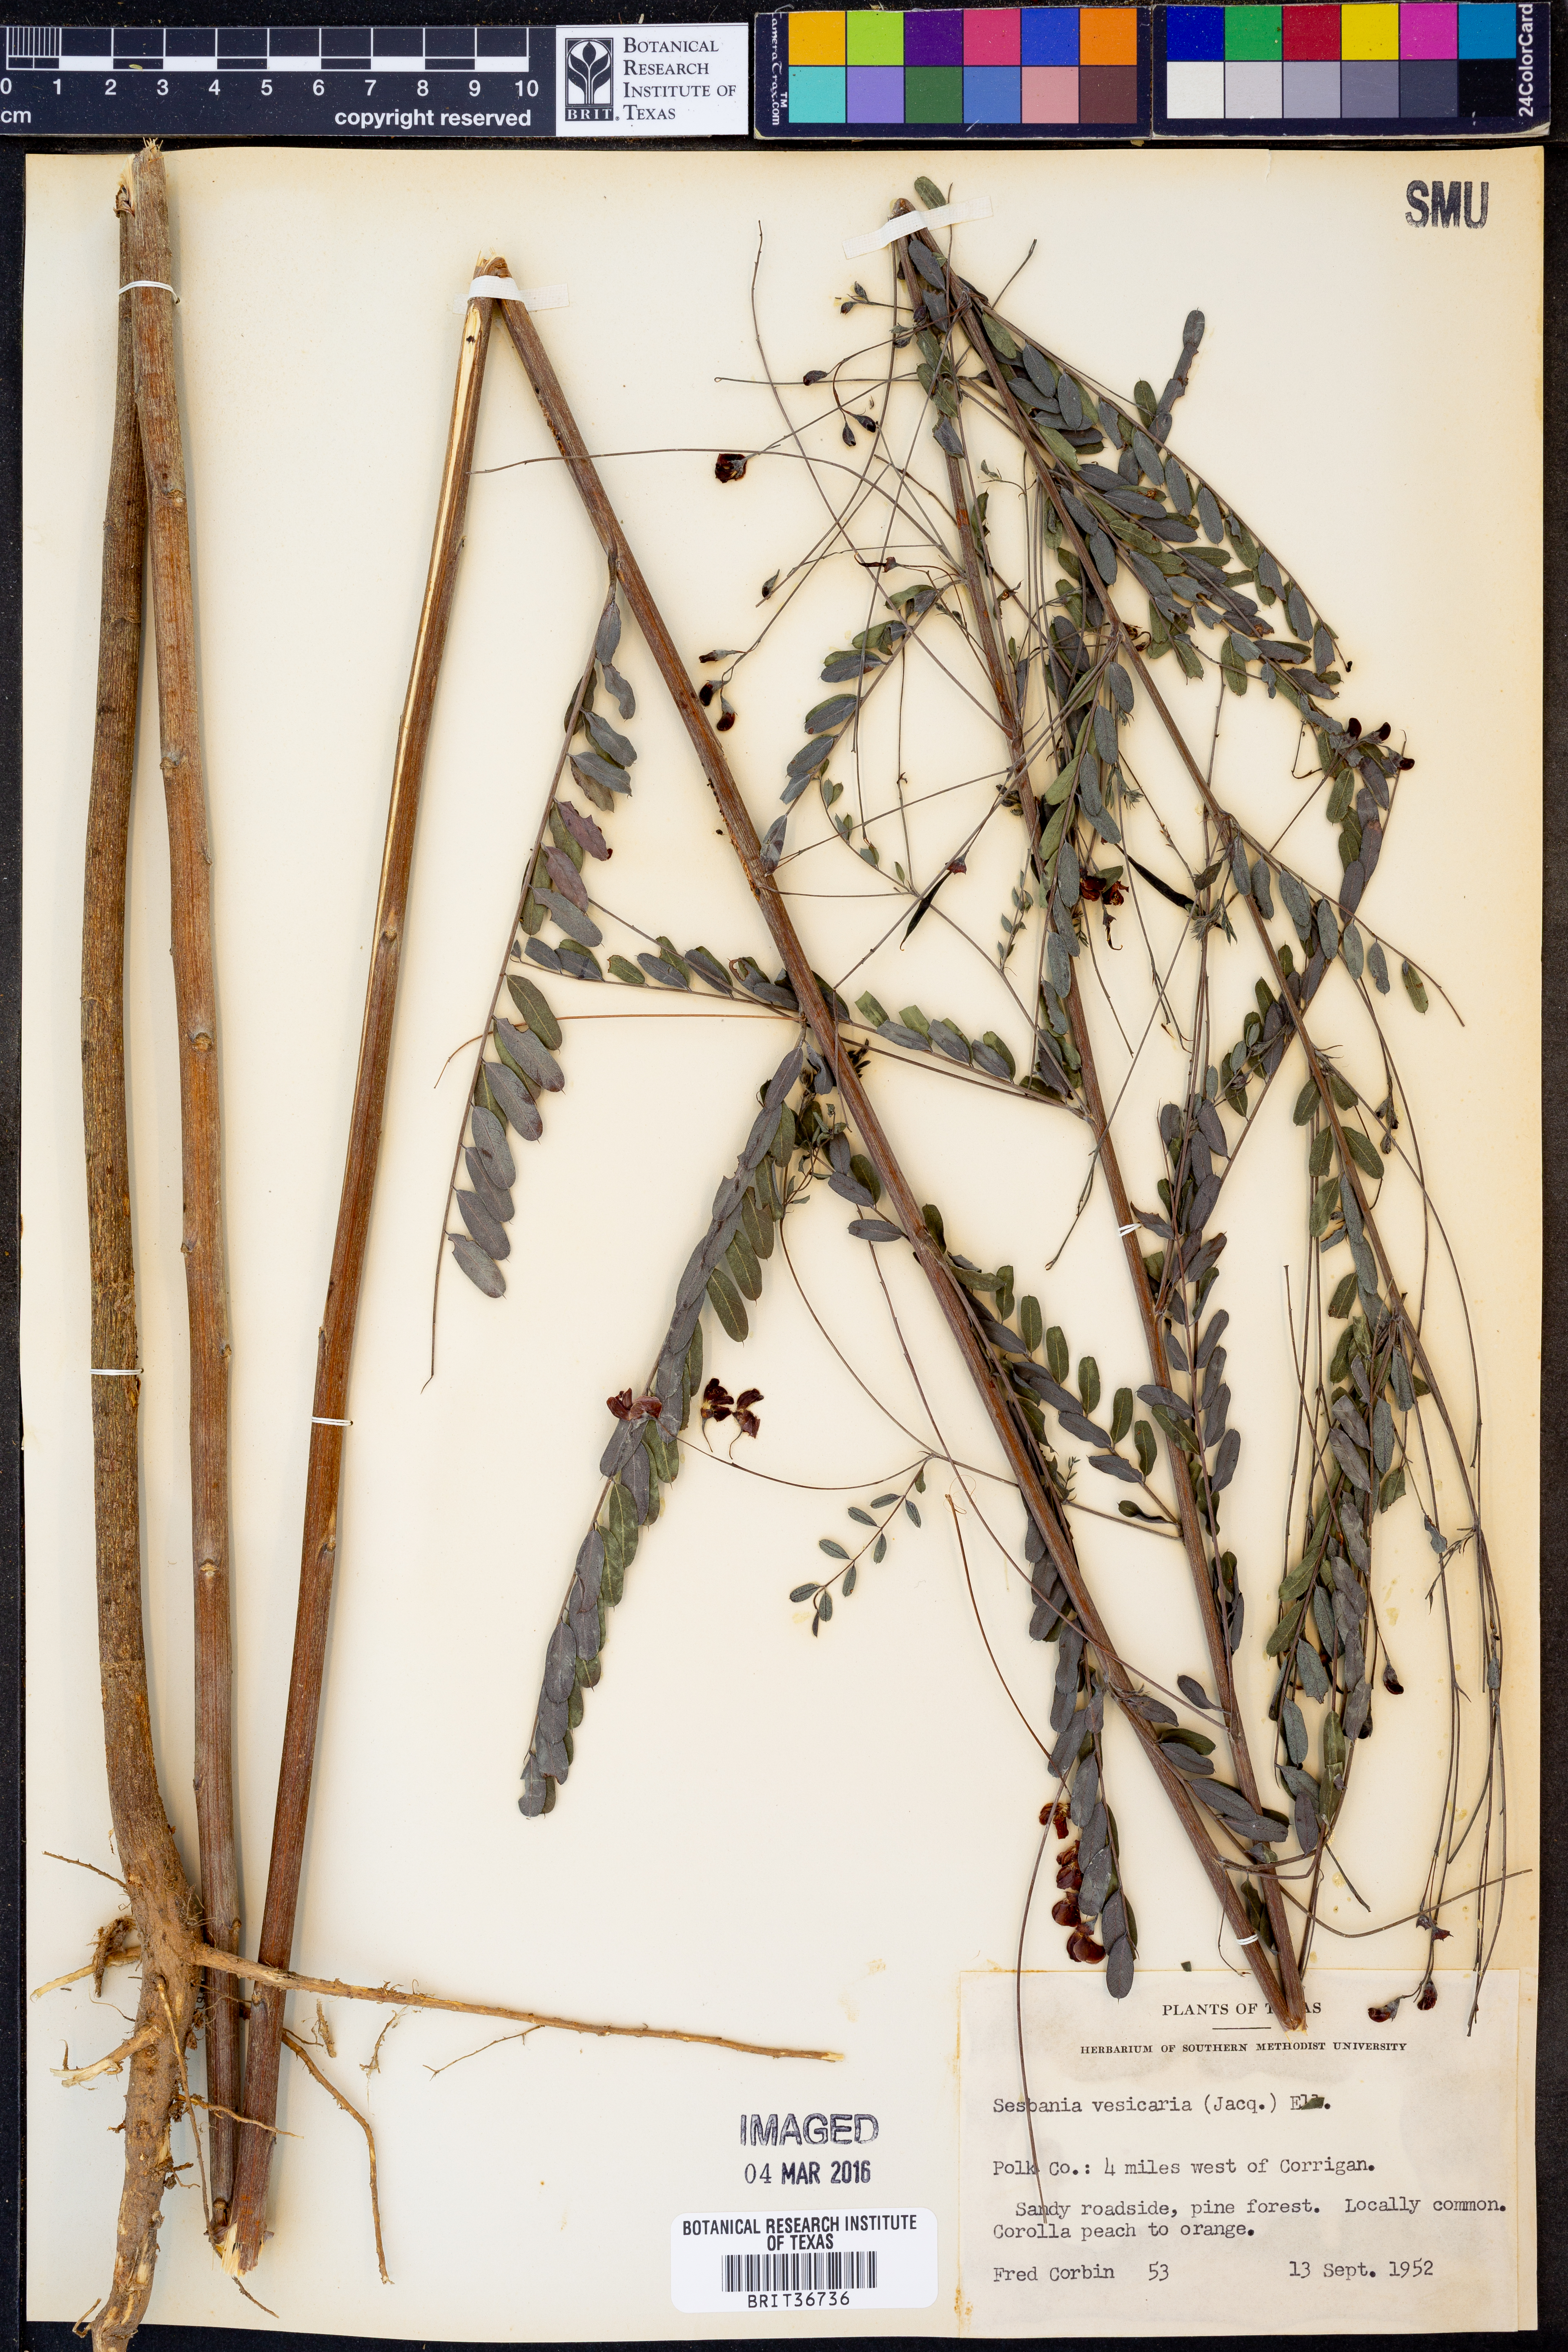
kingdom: Plantae
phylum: Tracheophyta
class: Magnoliopsida
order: Fabales
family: Fabaceae
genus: Sesbania
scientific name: Sesbania vesicaria
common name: Bagpod
